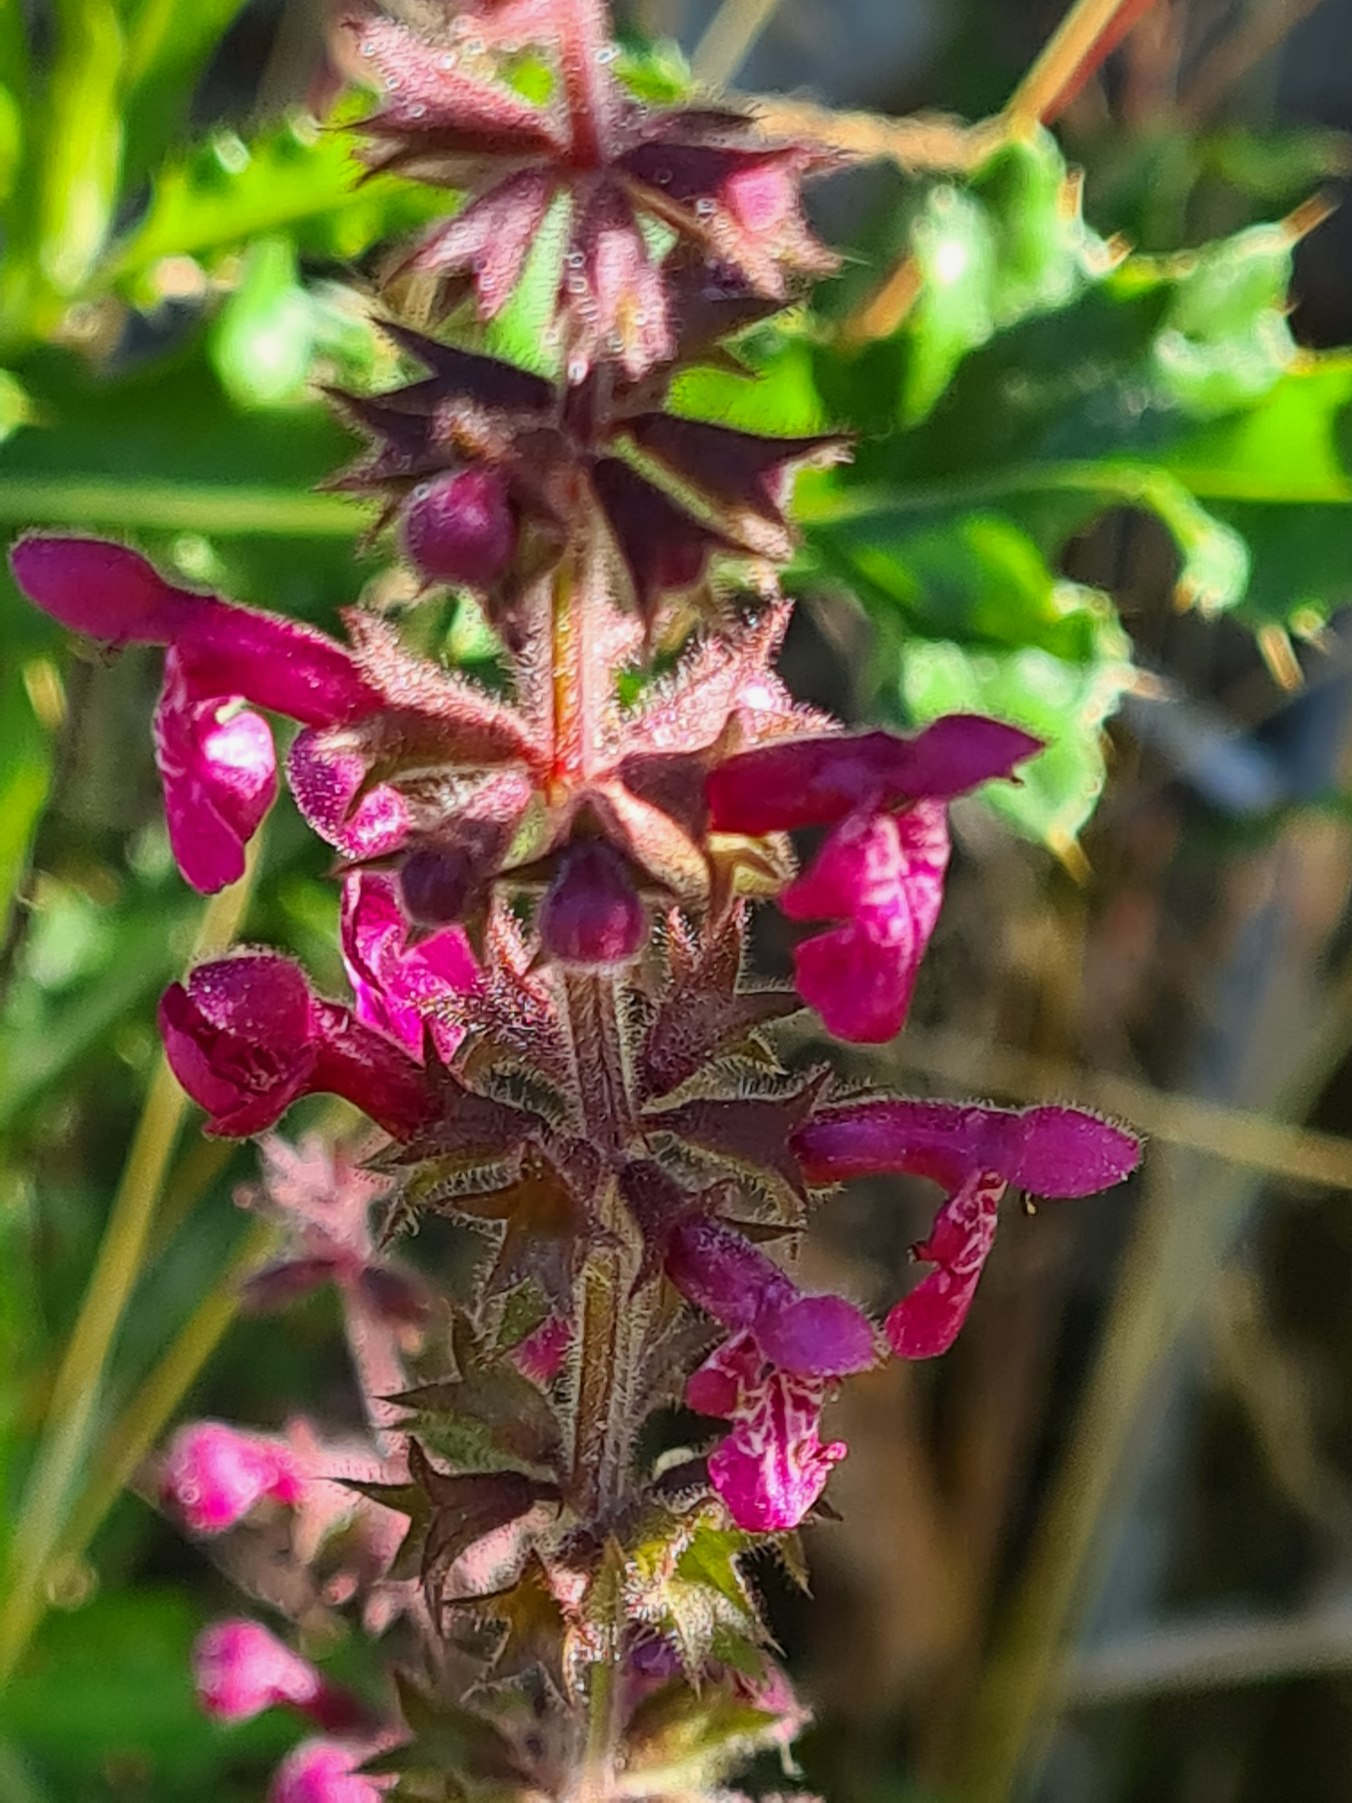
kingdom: Plantae
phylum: Tracheophyta
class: Magnoliopsida
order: Lamiales
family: Lamiaceae
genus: Stachys
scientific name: Stachys sylvatica
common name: Skov-galtetand
